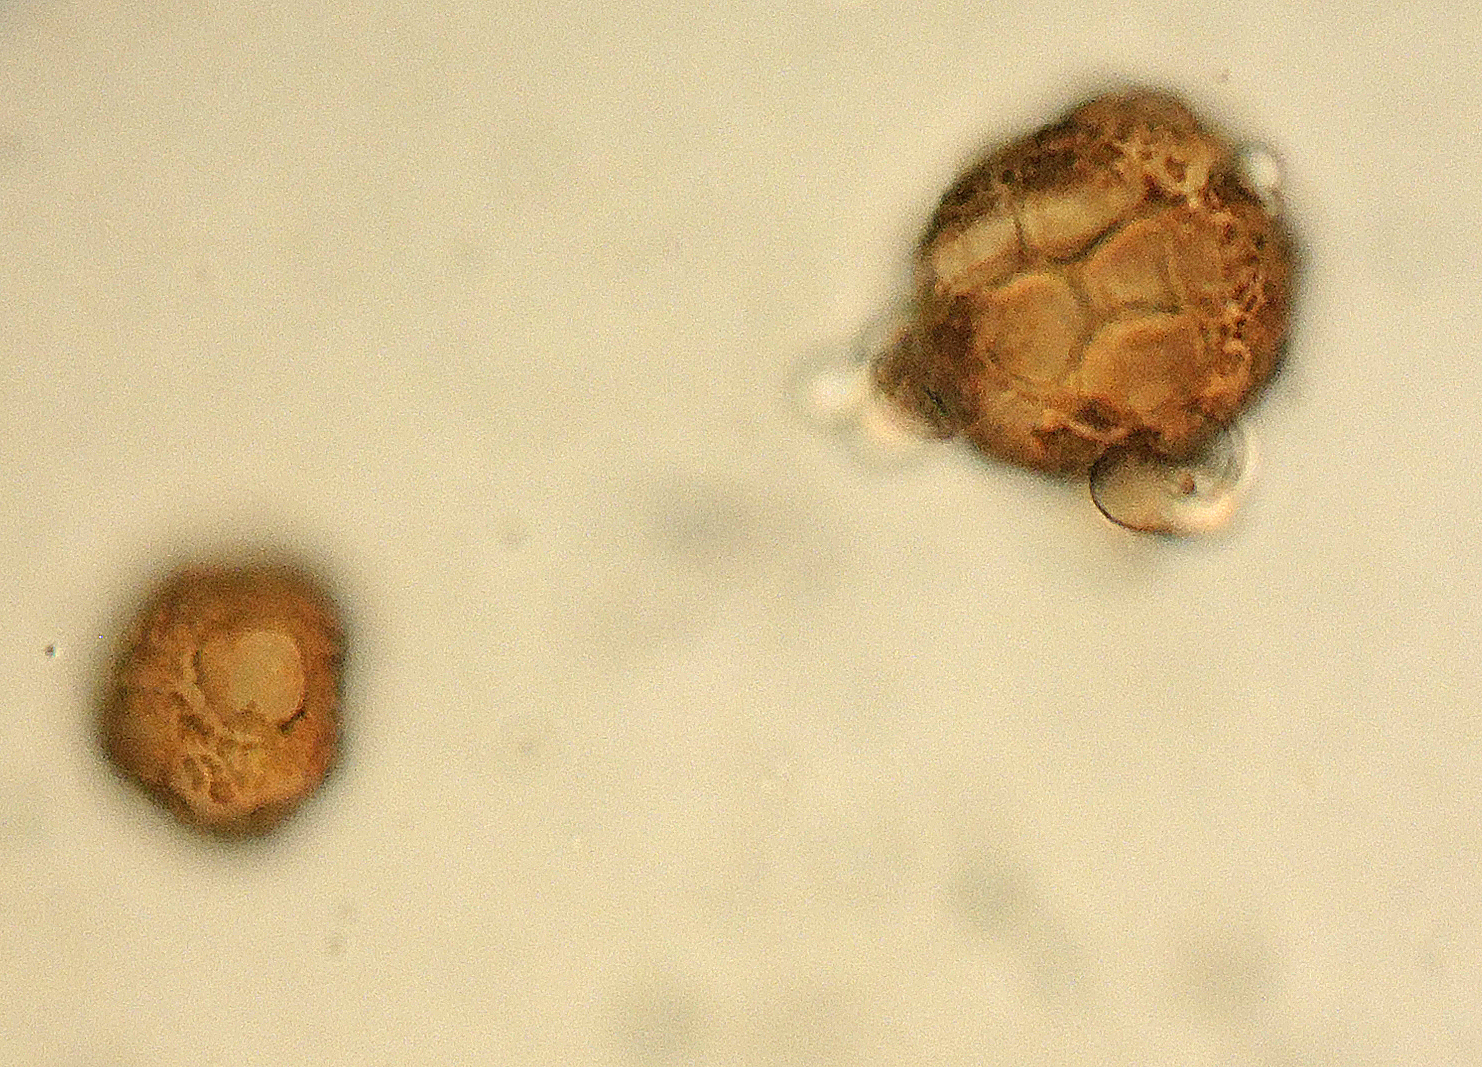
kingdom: Fungi
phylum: Ascomycota
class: Dothideomycetes
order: Pleosporales
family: Didymellaceae
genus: Epicoccum
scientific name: Epicoccum nigrum
